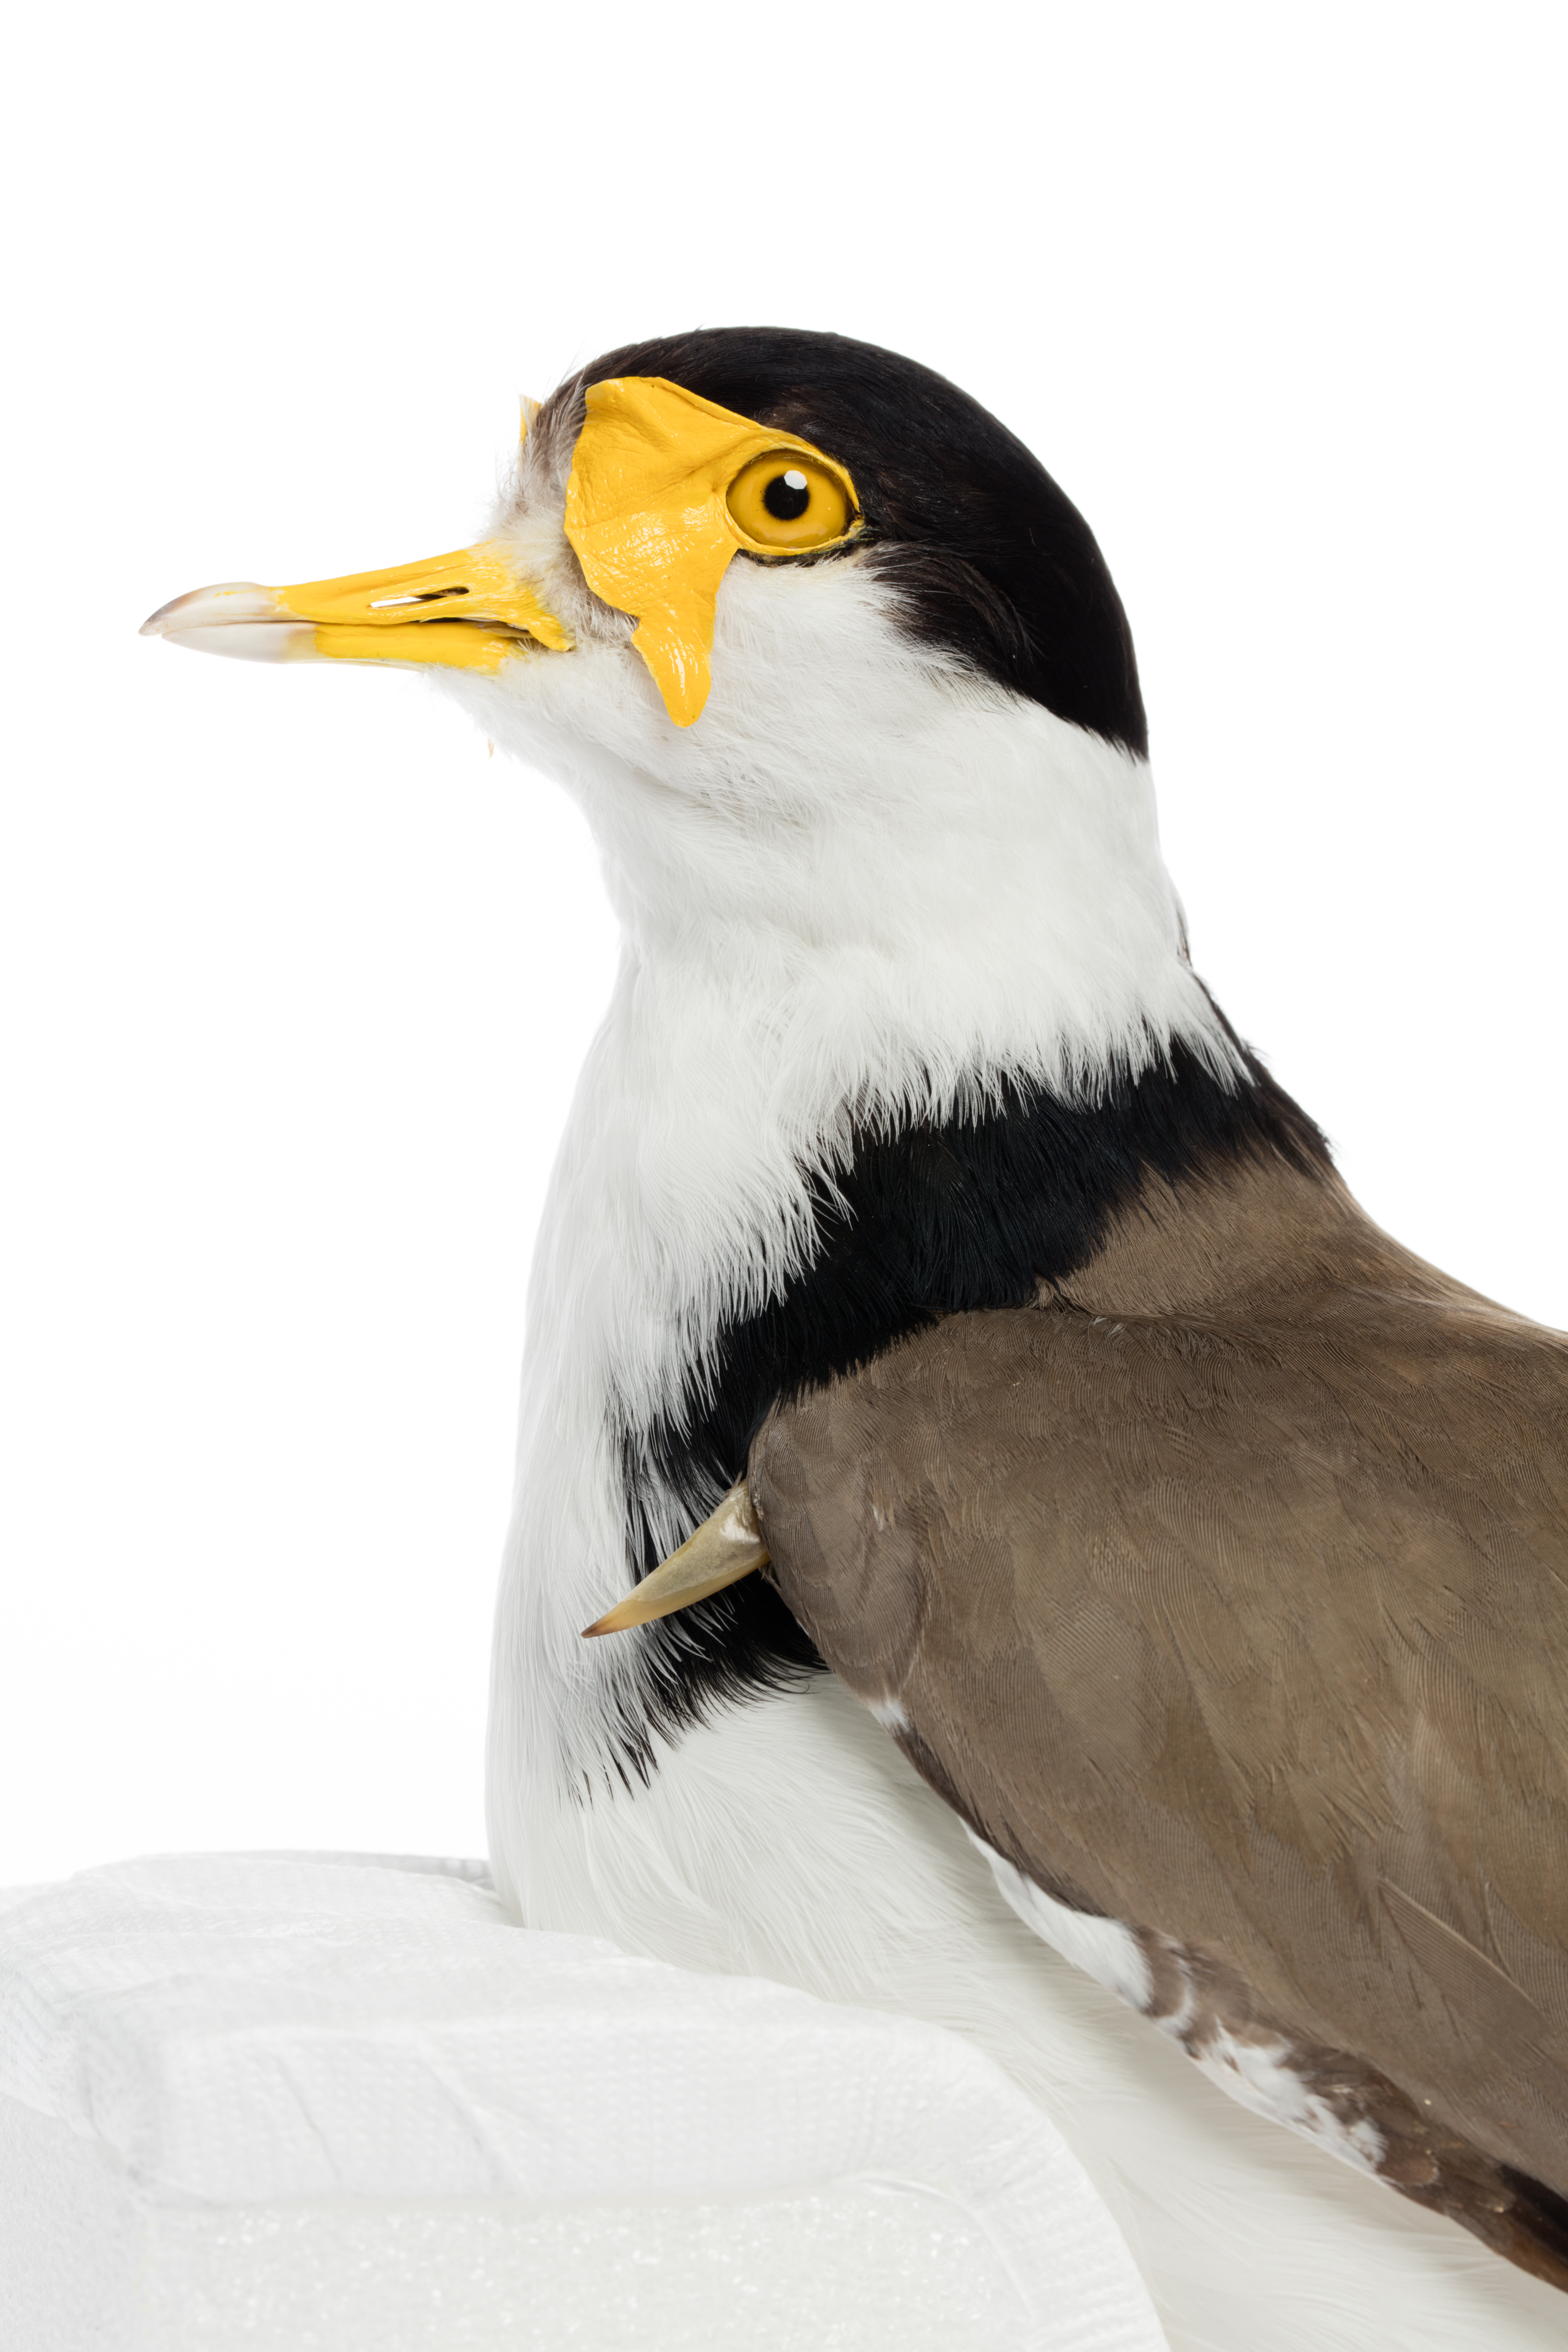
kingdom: Animalia
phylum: Chordata
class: Aves
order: Charadriiformes
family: Charadriidae
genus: Vanellus
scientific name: Vanellus miles
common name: Masked lapwing
